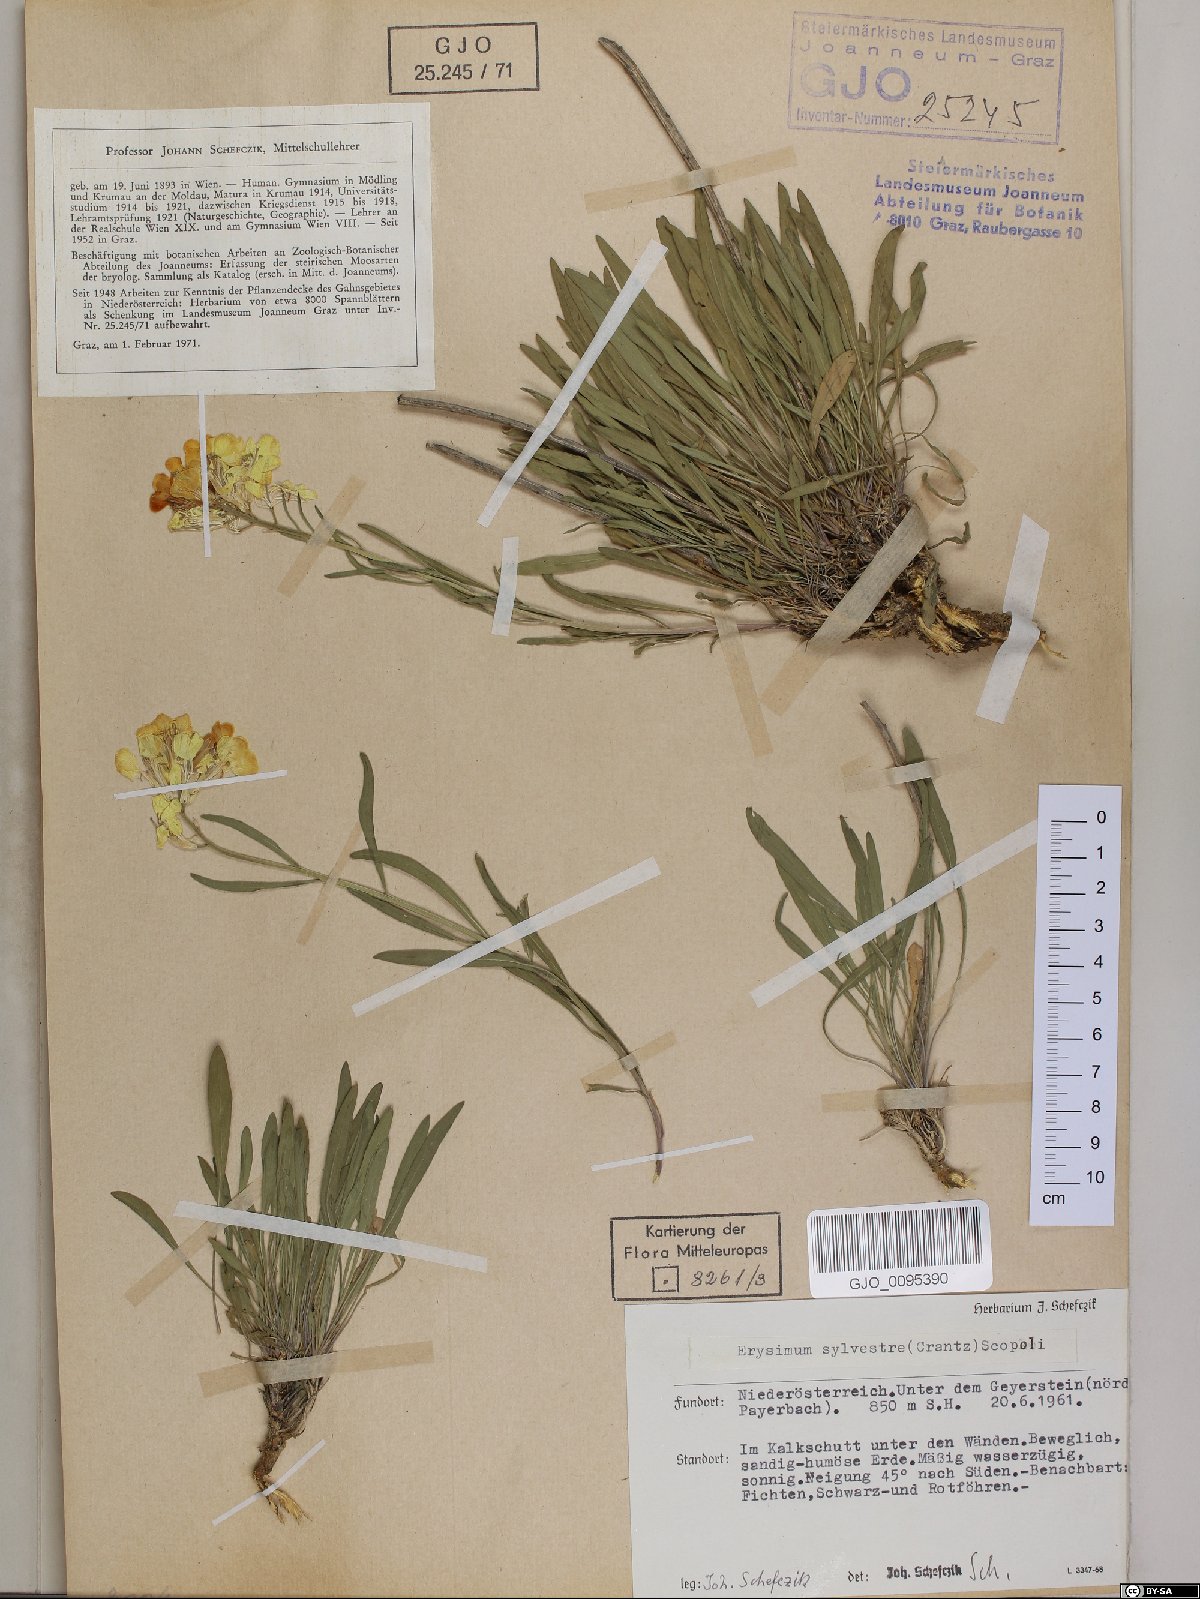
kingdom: Plantae
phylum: Tracheophyta
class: Magnoliopsida
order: Brassicales
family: Brassicaceae
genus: Erysimum
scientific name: Erysimum sylvestre
